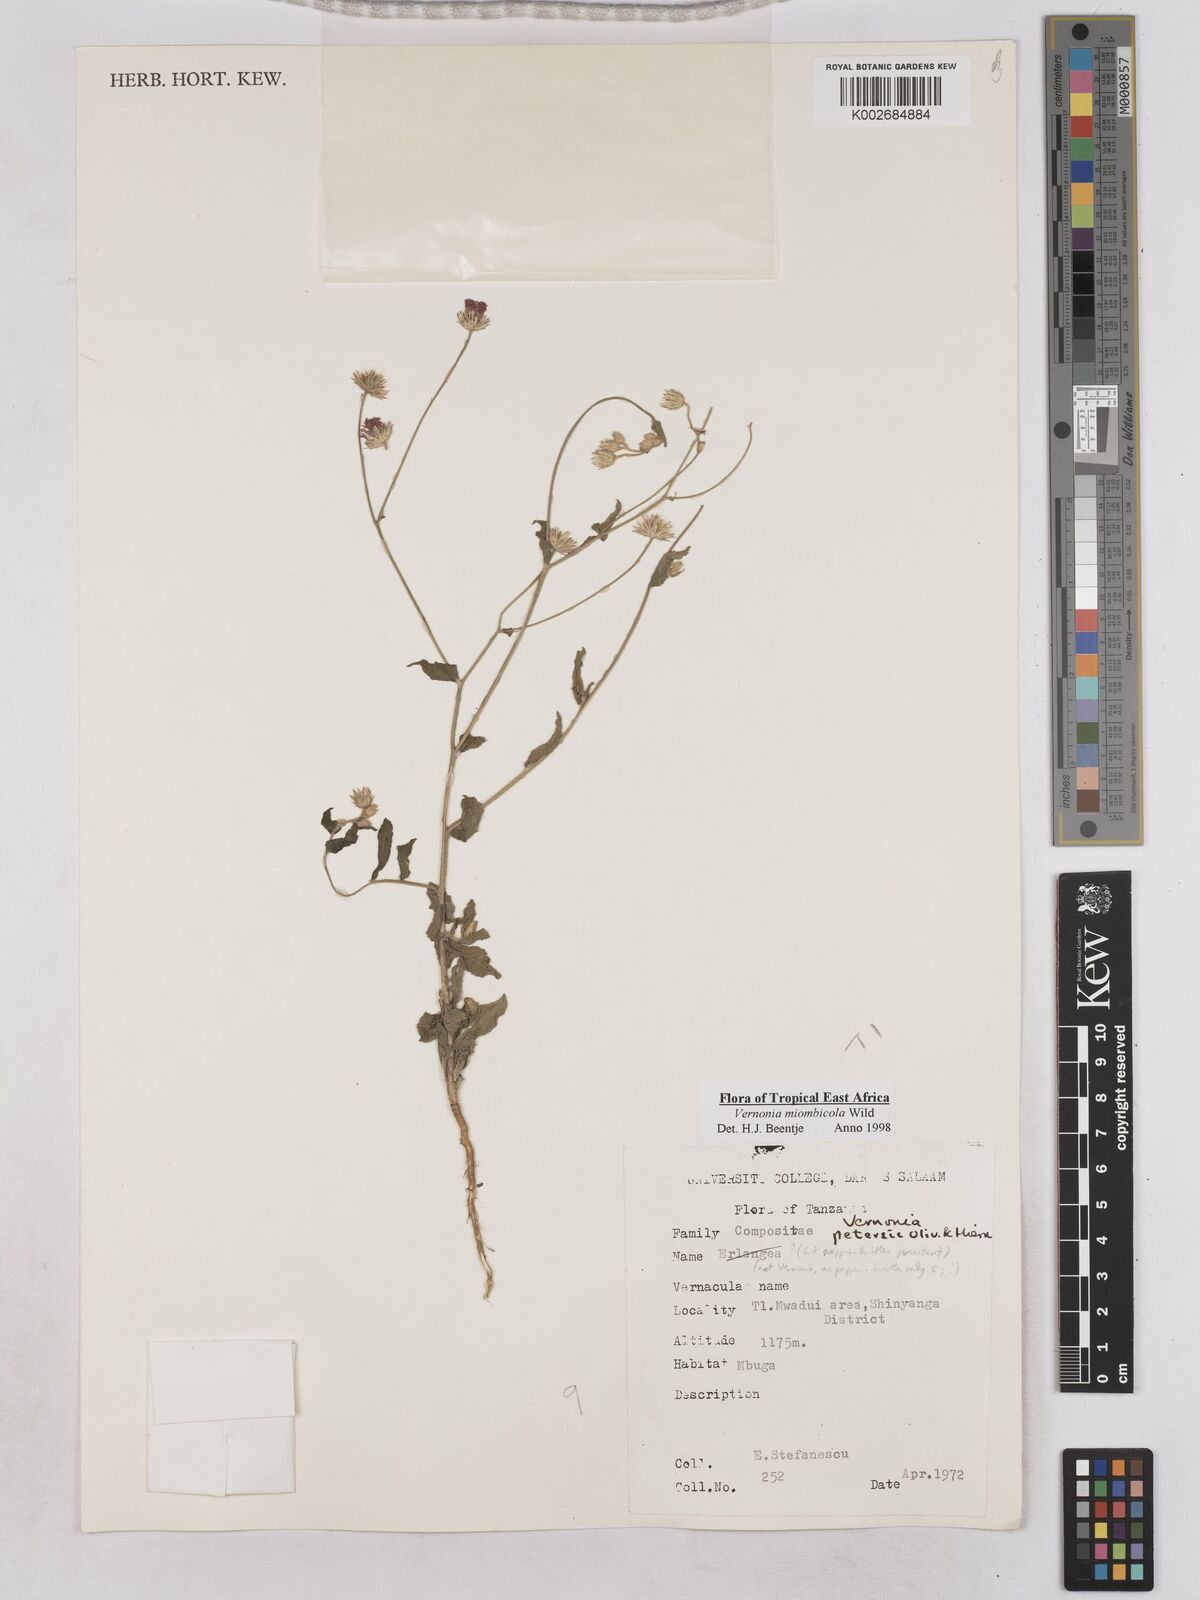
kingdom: Plantae
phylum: Tracheophyta
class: Magnoliopsida
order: Asterales
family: Asteraceae
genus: Vernonia
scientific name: Vernonia miombicola
